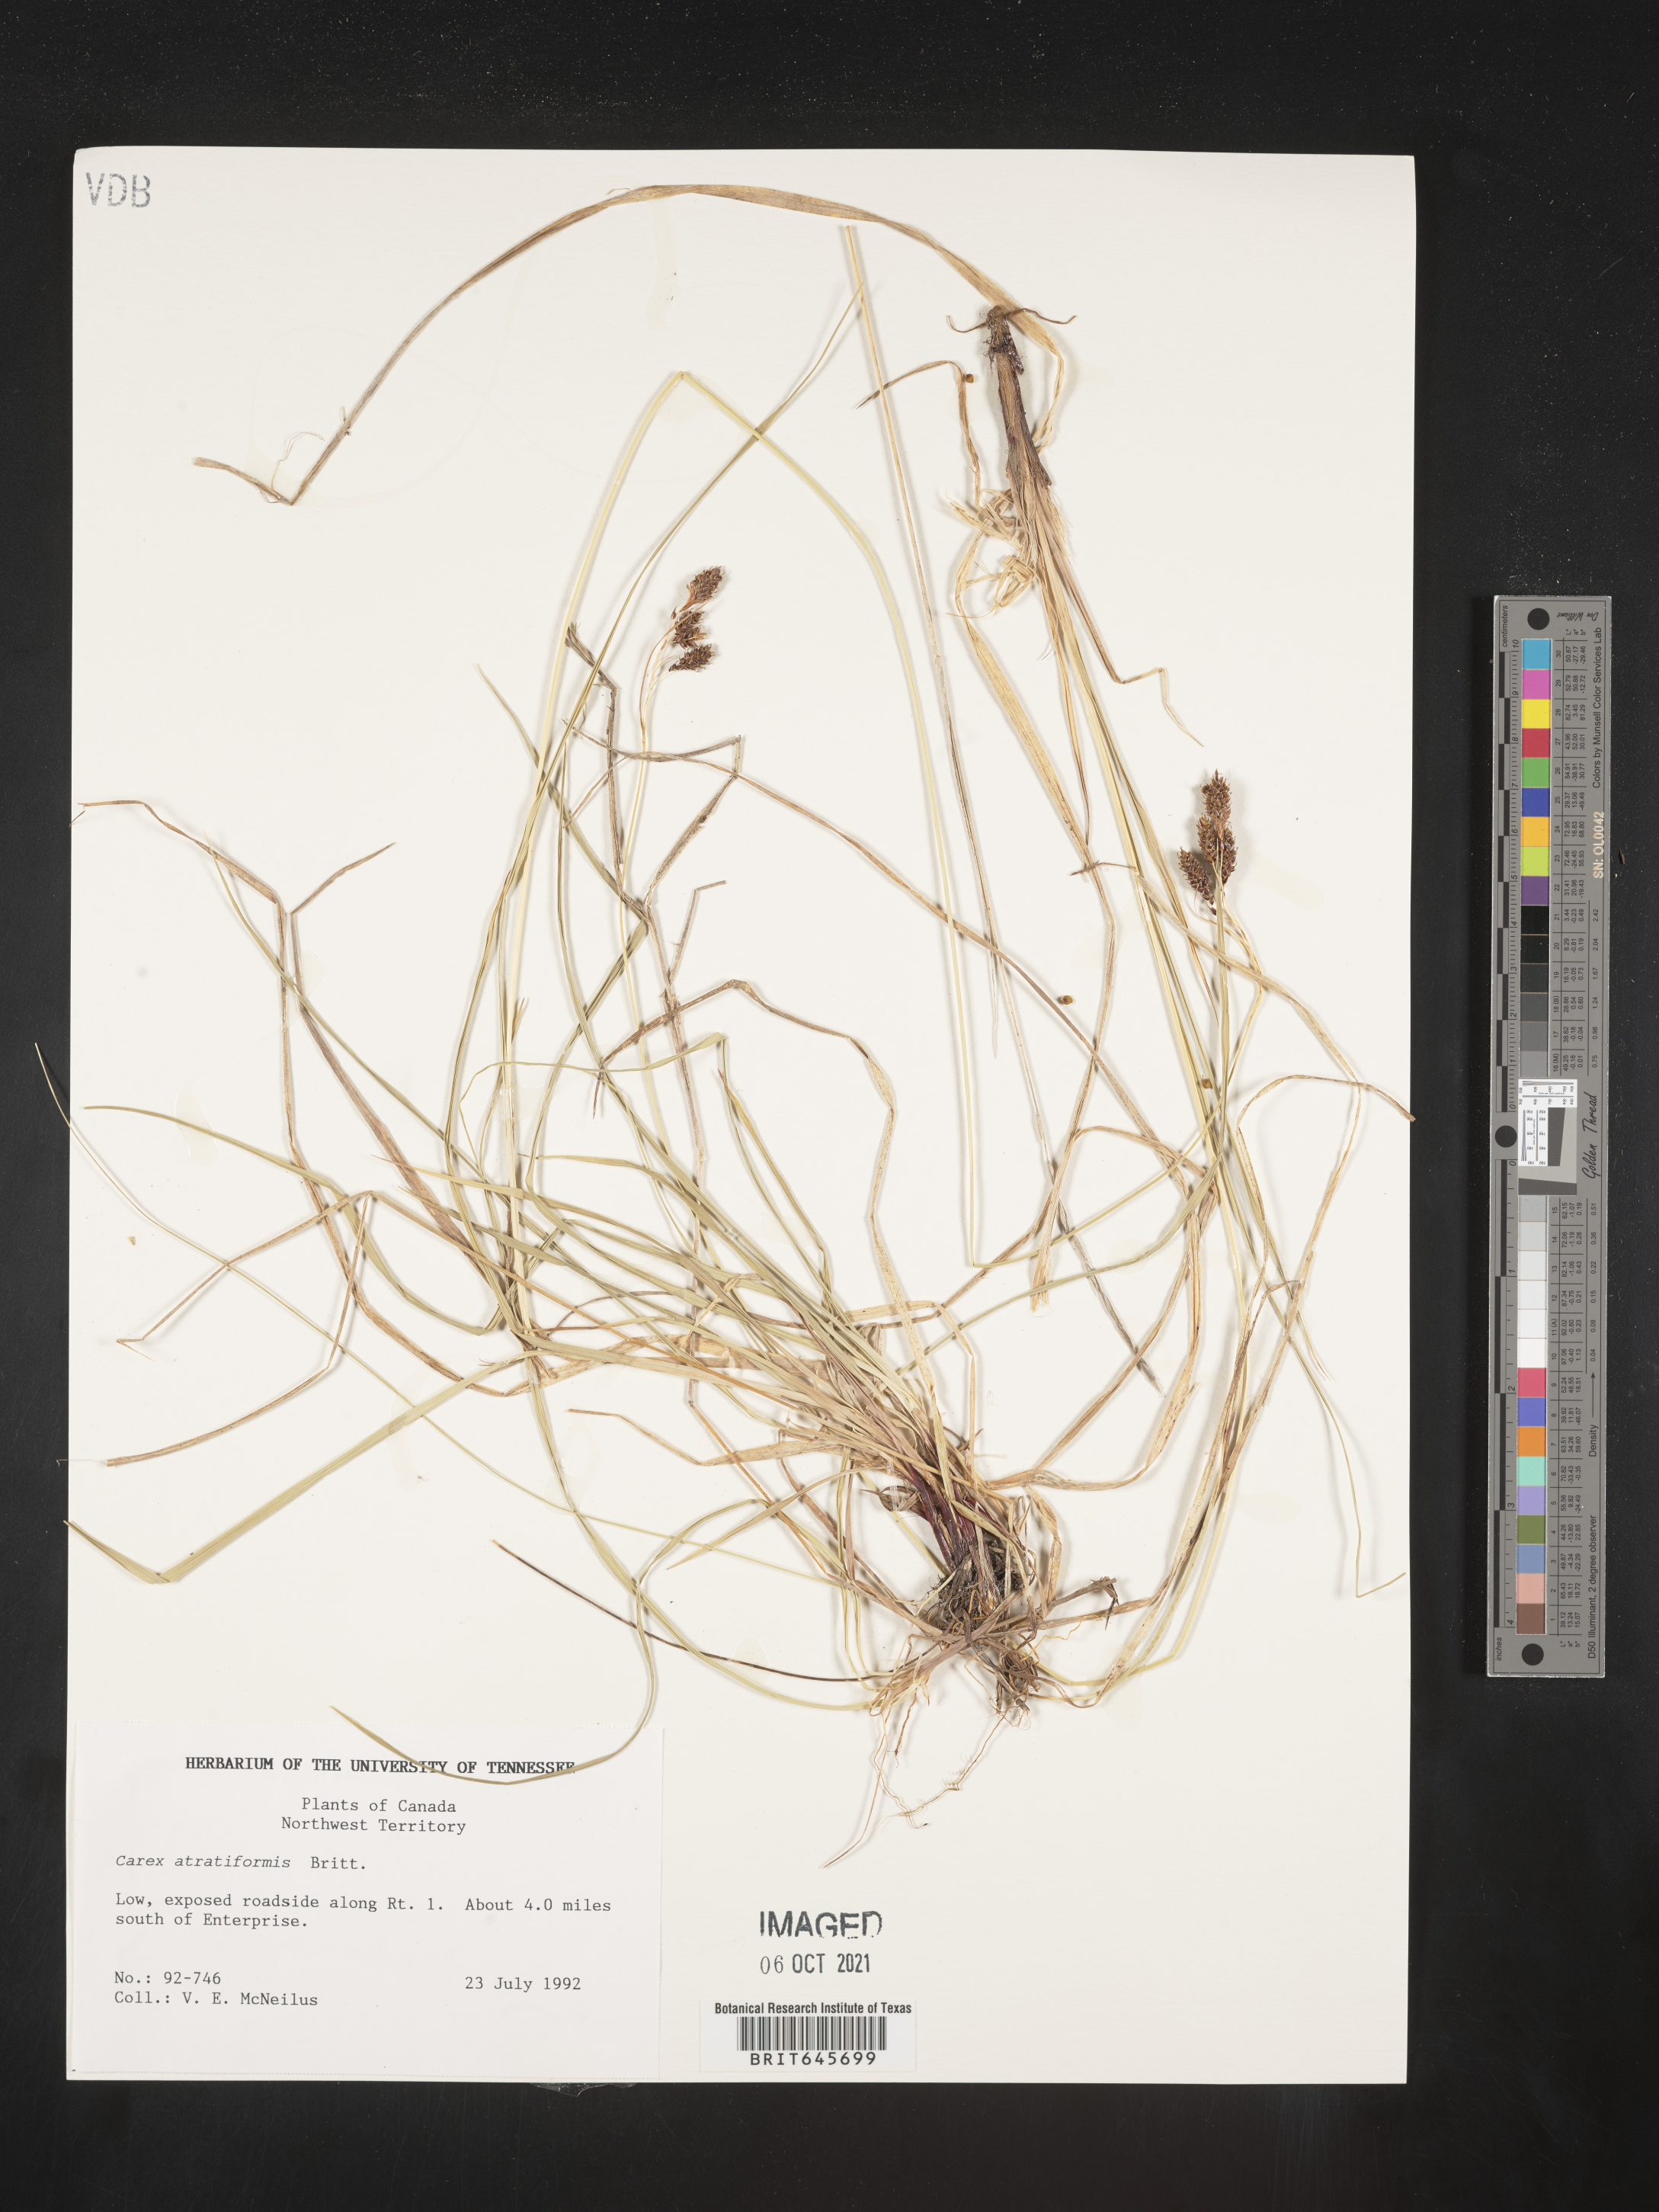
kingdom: Plantae
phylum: Tracheophyta
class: Liliopsida
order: Poales
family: Cyperaceae
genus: Carex
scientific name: Carex atratiformis
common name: Black sedge
